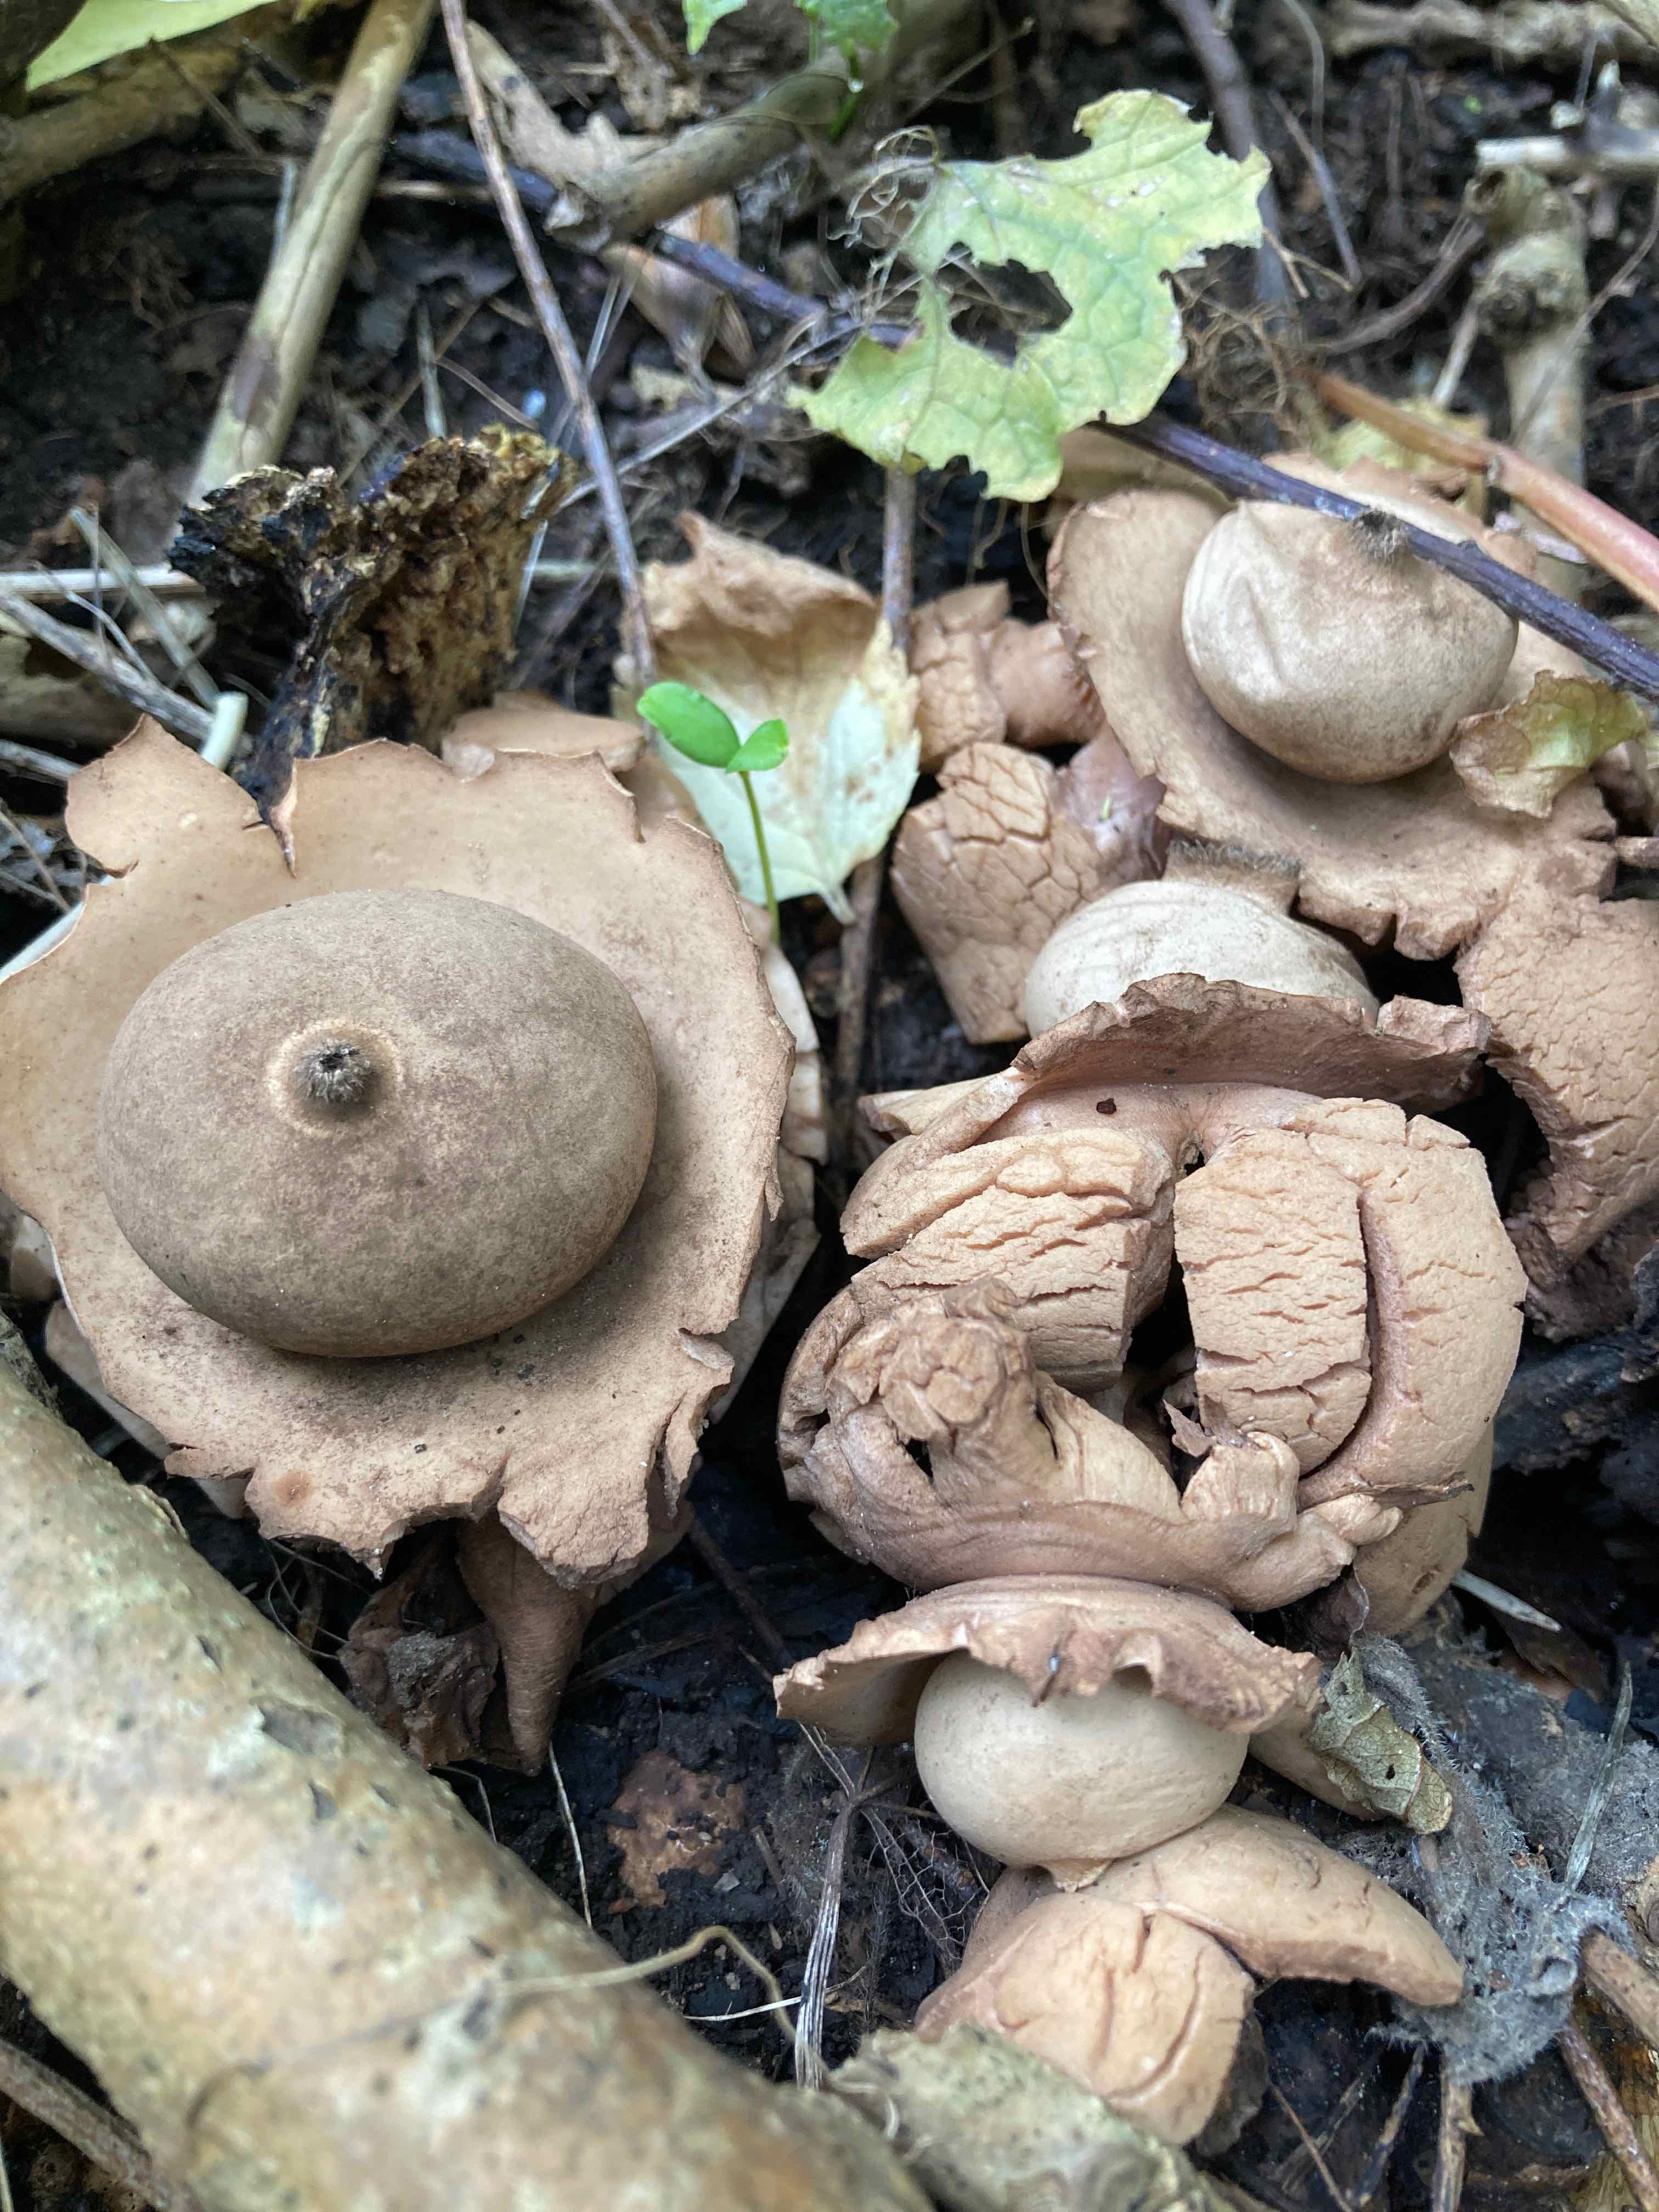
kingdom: Fungi
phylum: Basidiomycota
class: Agaricomycetes
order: Geastrales
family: Geastraceae
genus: Geastrum
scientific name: Geastrum michelianum
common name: kødet stjernebold
